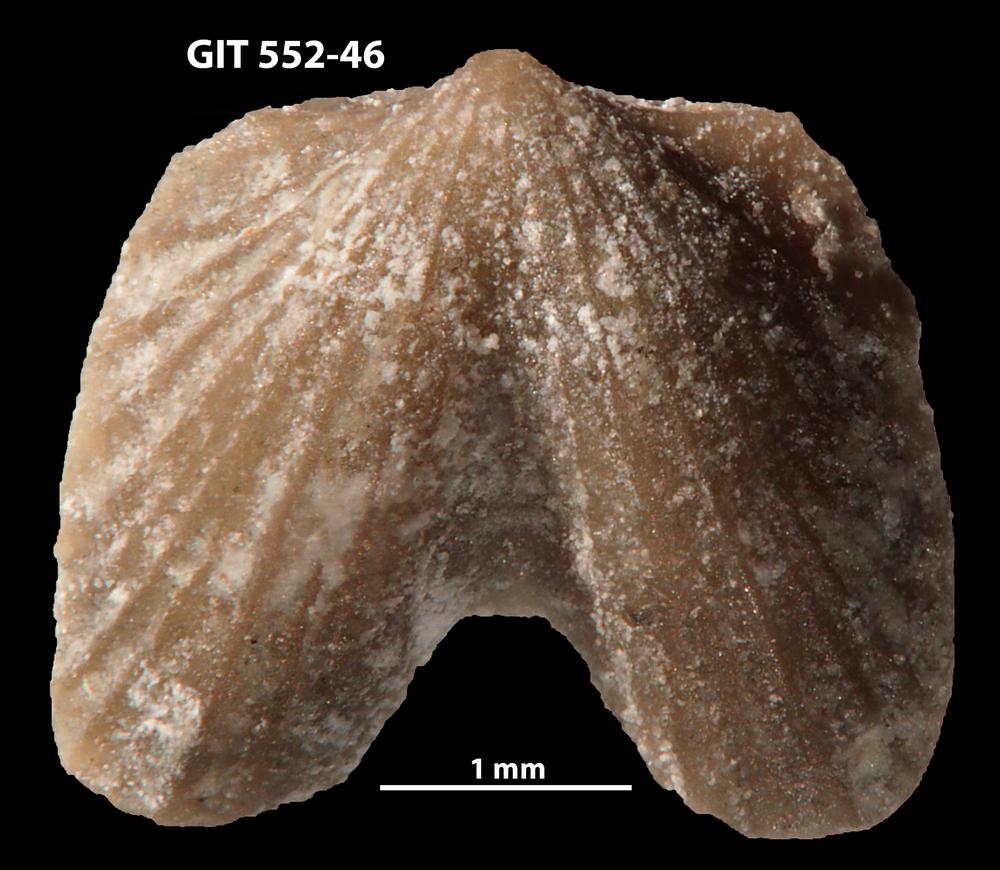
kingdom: Animalia
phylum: Brachiopoda
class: Rhynchonellata
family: Dicoelosiidae
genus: Dicoelosia
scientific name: Dicoelosia paralata
